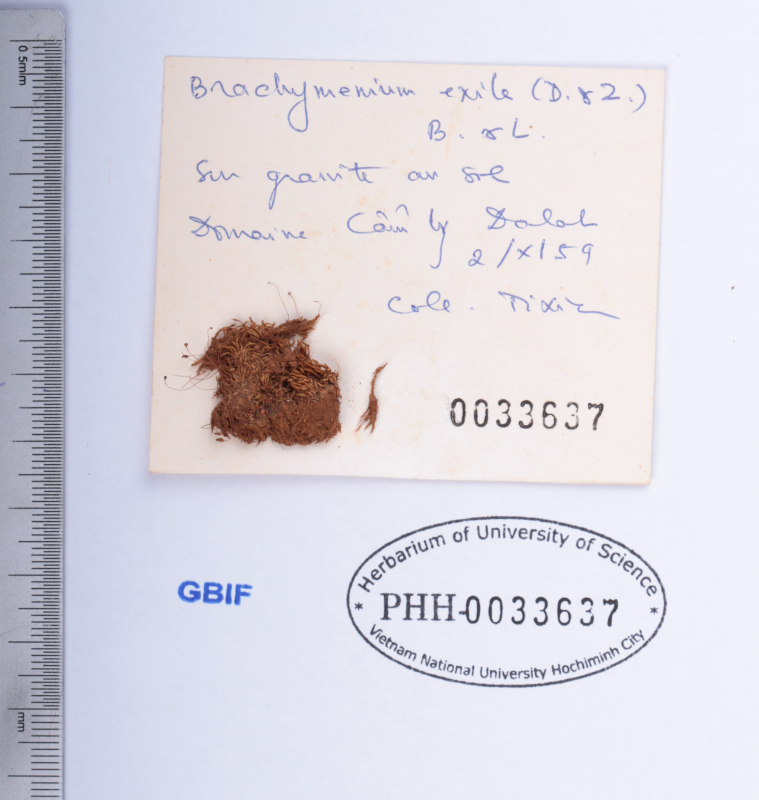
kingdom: Plantae
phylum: Bryophyta
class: Bryopsida
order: Bryales
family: Bryaceae
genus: Gemmabryum
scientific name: Gemmabryum exile
